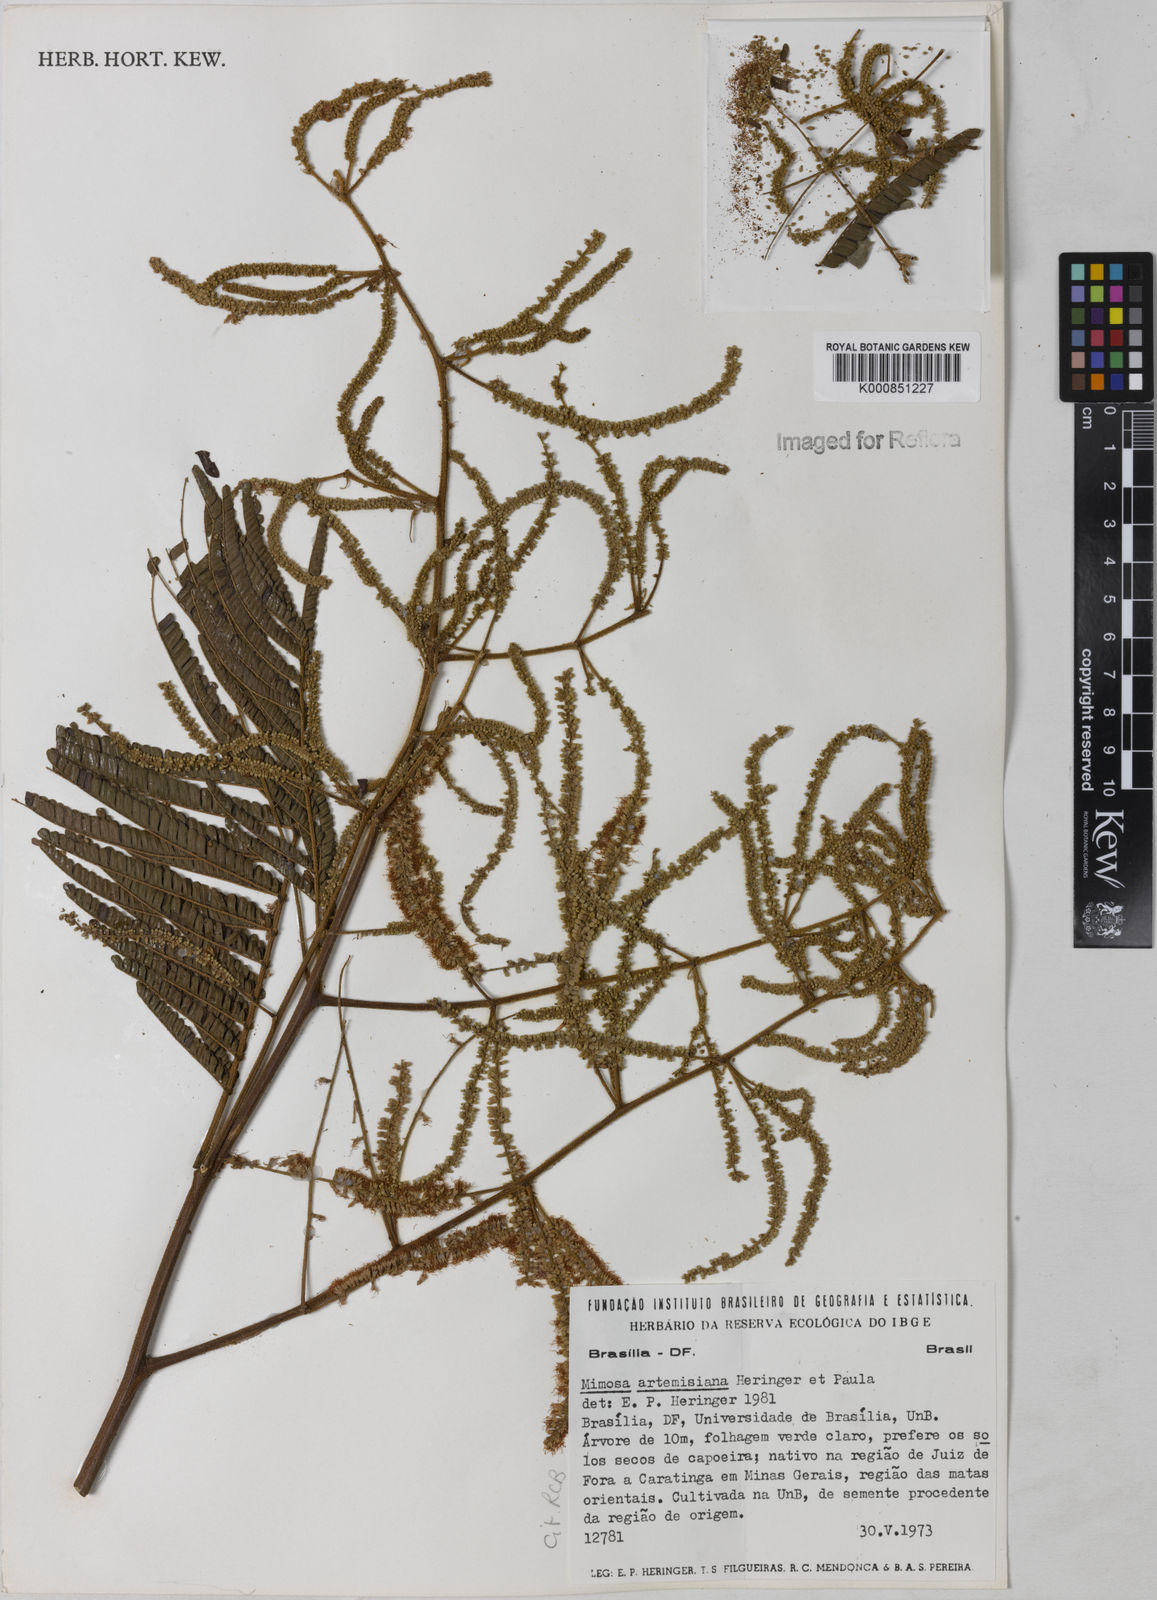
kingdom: Plantae
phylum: Tracheophyta
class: Magnoliopsida
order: Fabales
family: Fabaceae
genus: Mimosa
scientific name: Mimosa schomburgkii
